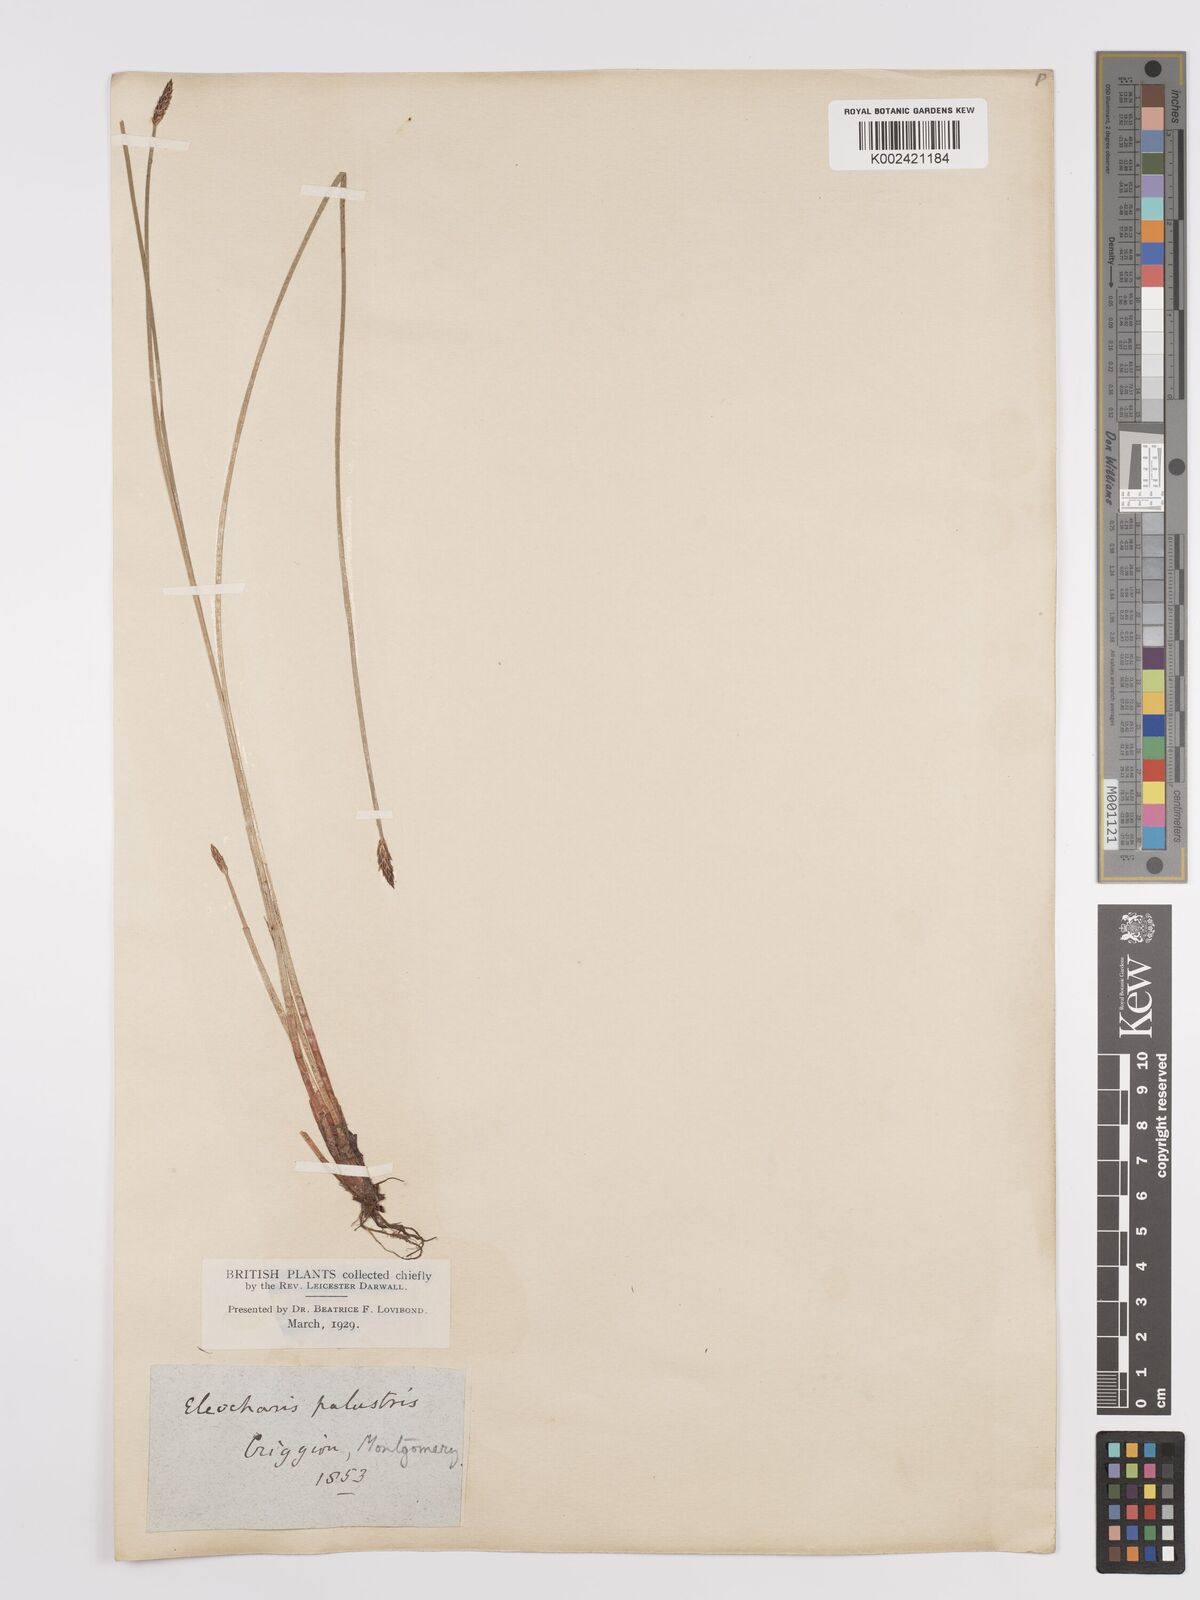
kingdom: Plantae
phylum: Tracheophyta
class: Liliopsida
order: Poales
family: Cyperaceae
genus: Eleocharis
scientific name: Eleocharis palustris
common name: Common spike-rush
